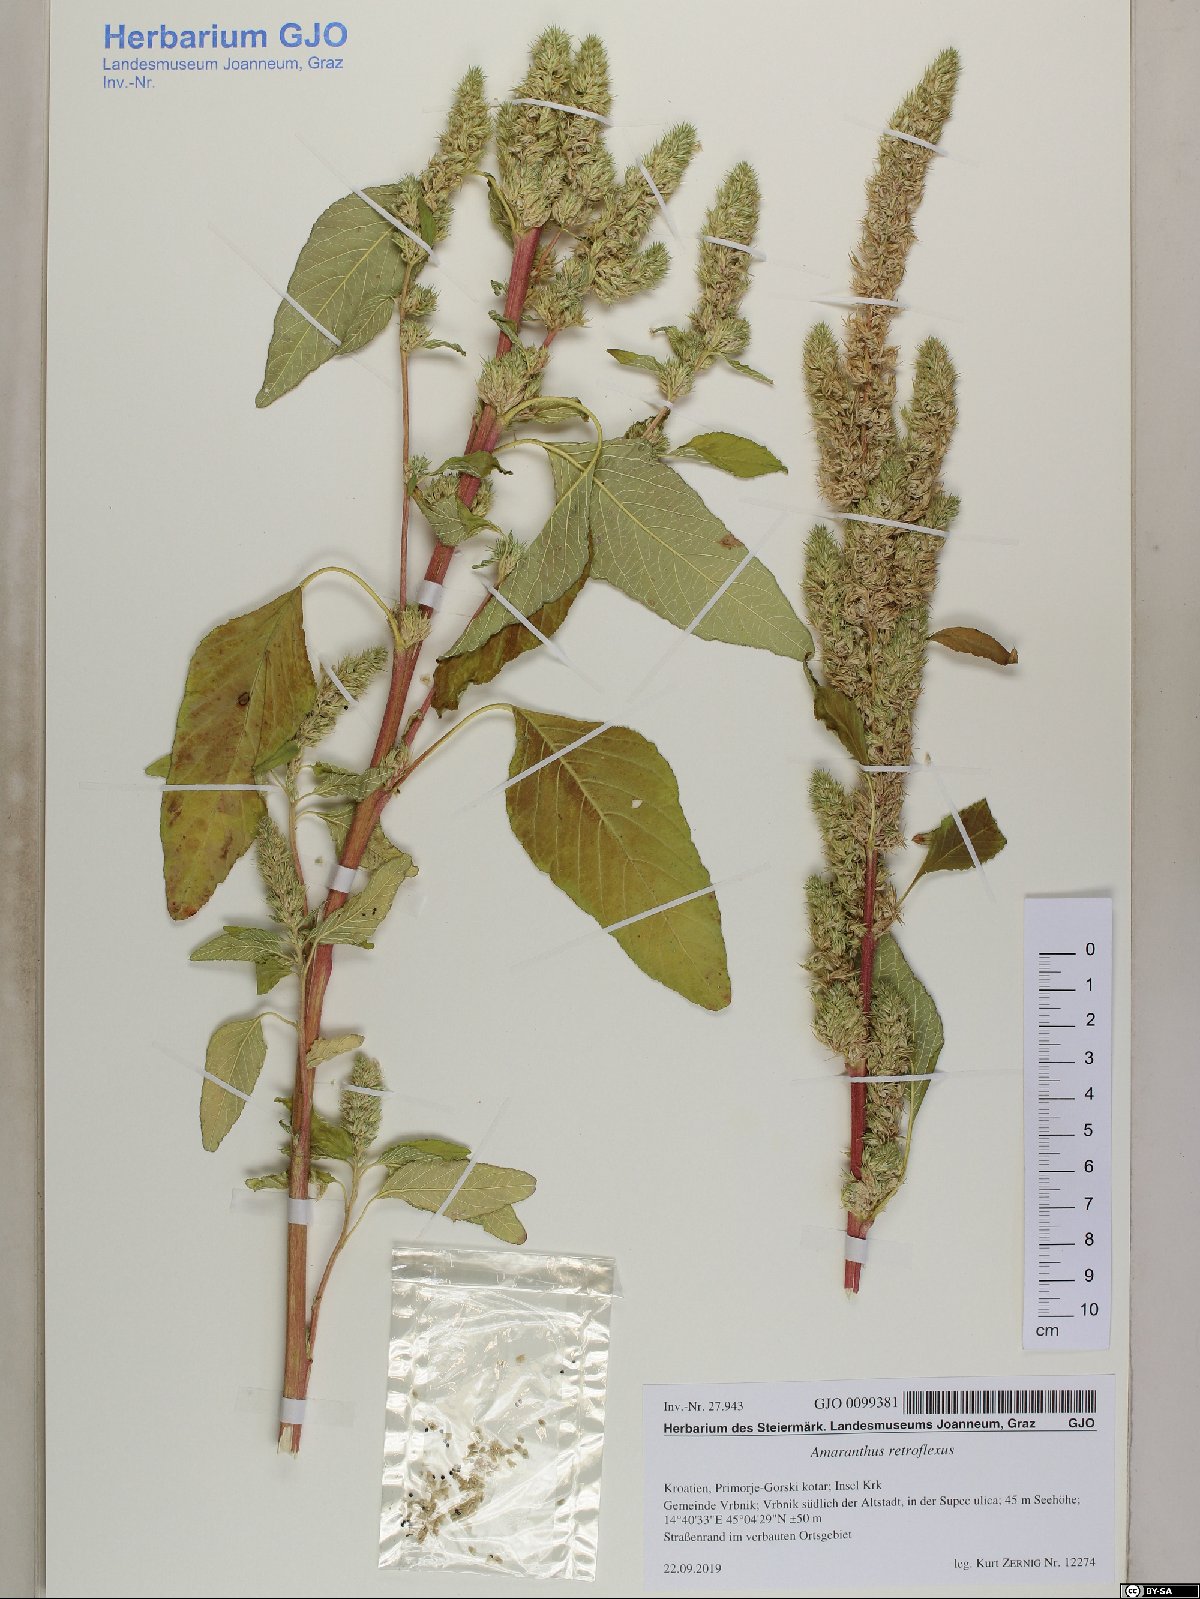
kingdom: Plantae
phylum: Tracheophyta
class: Magnoliopsida
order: Caryophyllales
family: Amaranthaceae
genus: Amaranthus
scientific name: Amaranthus retroflexus
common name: Redroot amaranth
